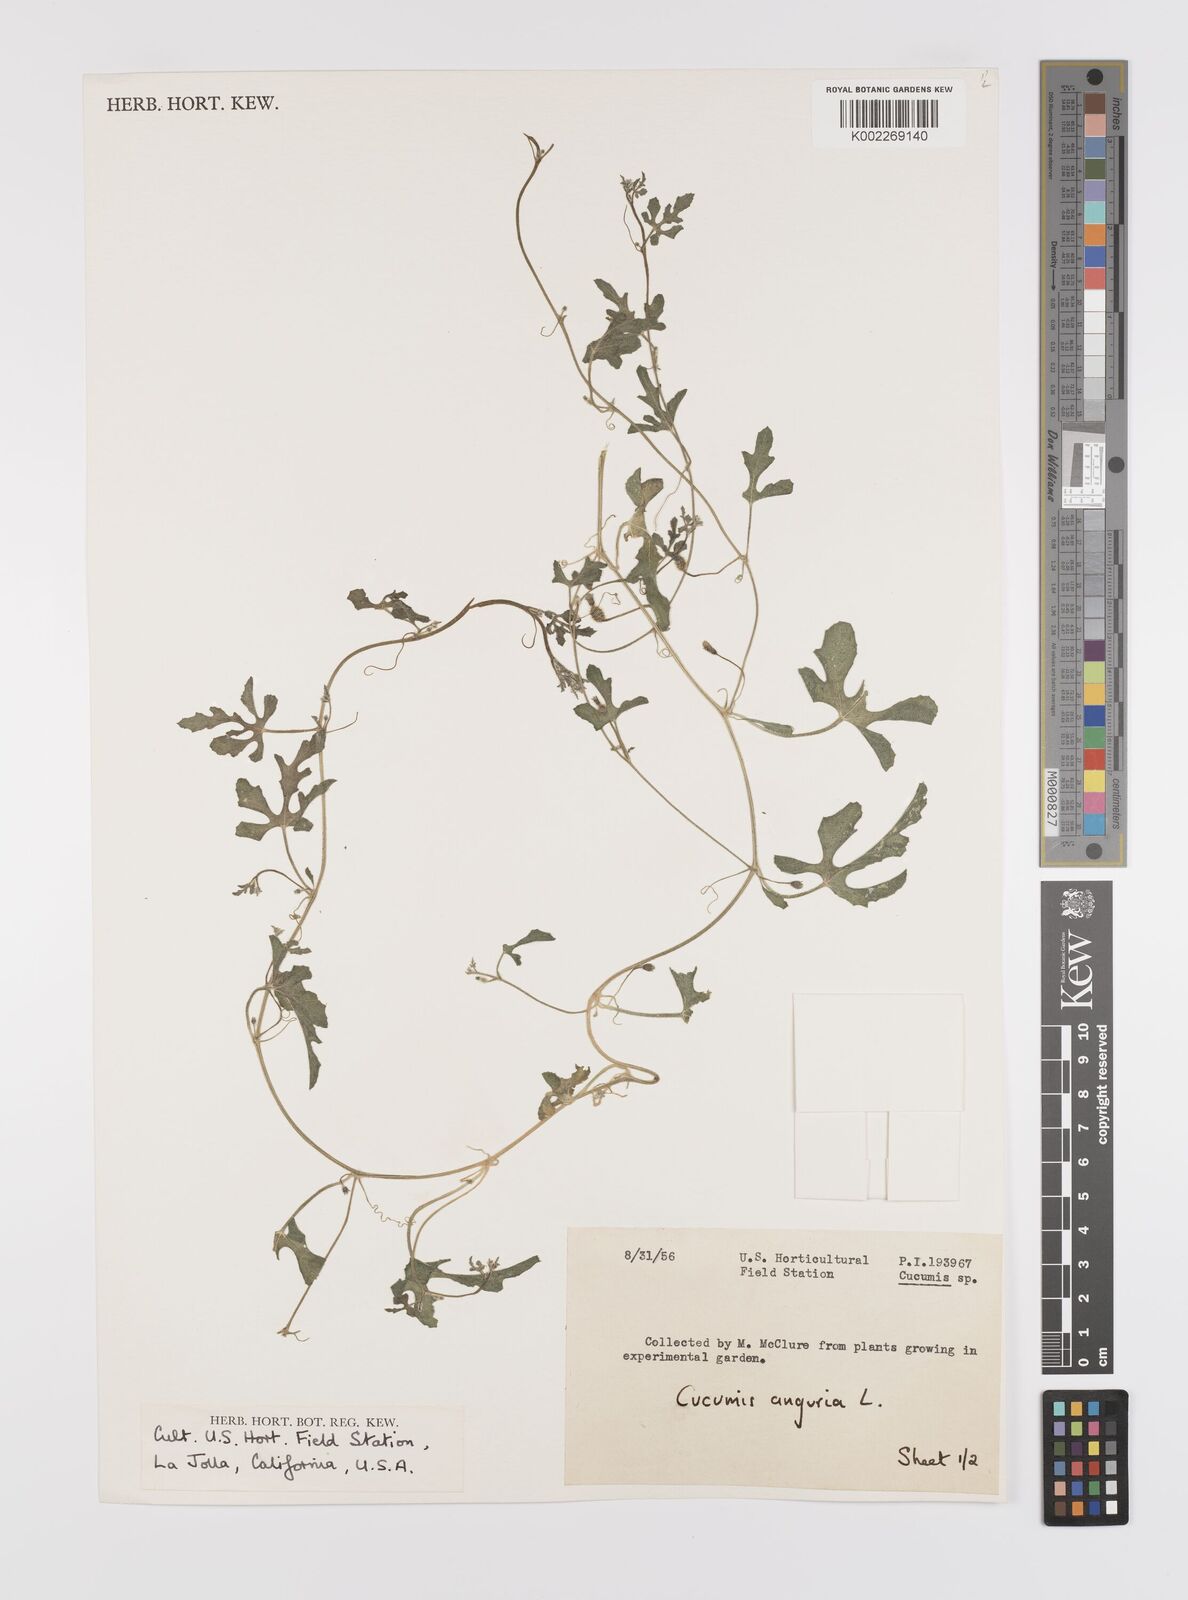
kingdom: Plantae
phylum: Tracheophyta
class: Magnoliopsida
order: Cucurbitales
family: Cucurbitaceae
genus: Cucumis
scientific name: Cucumis anguria
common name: West indian gherkin
